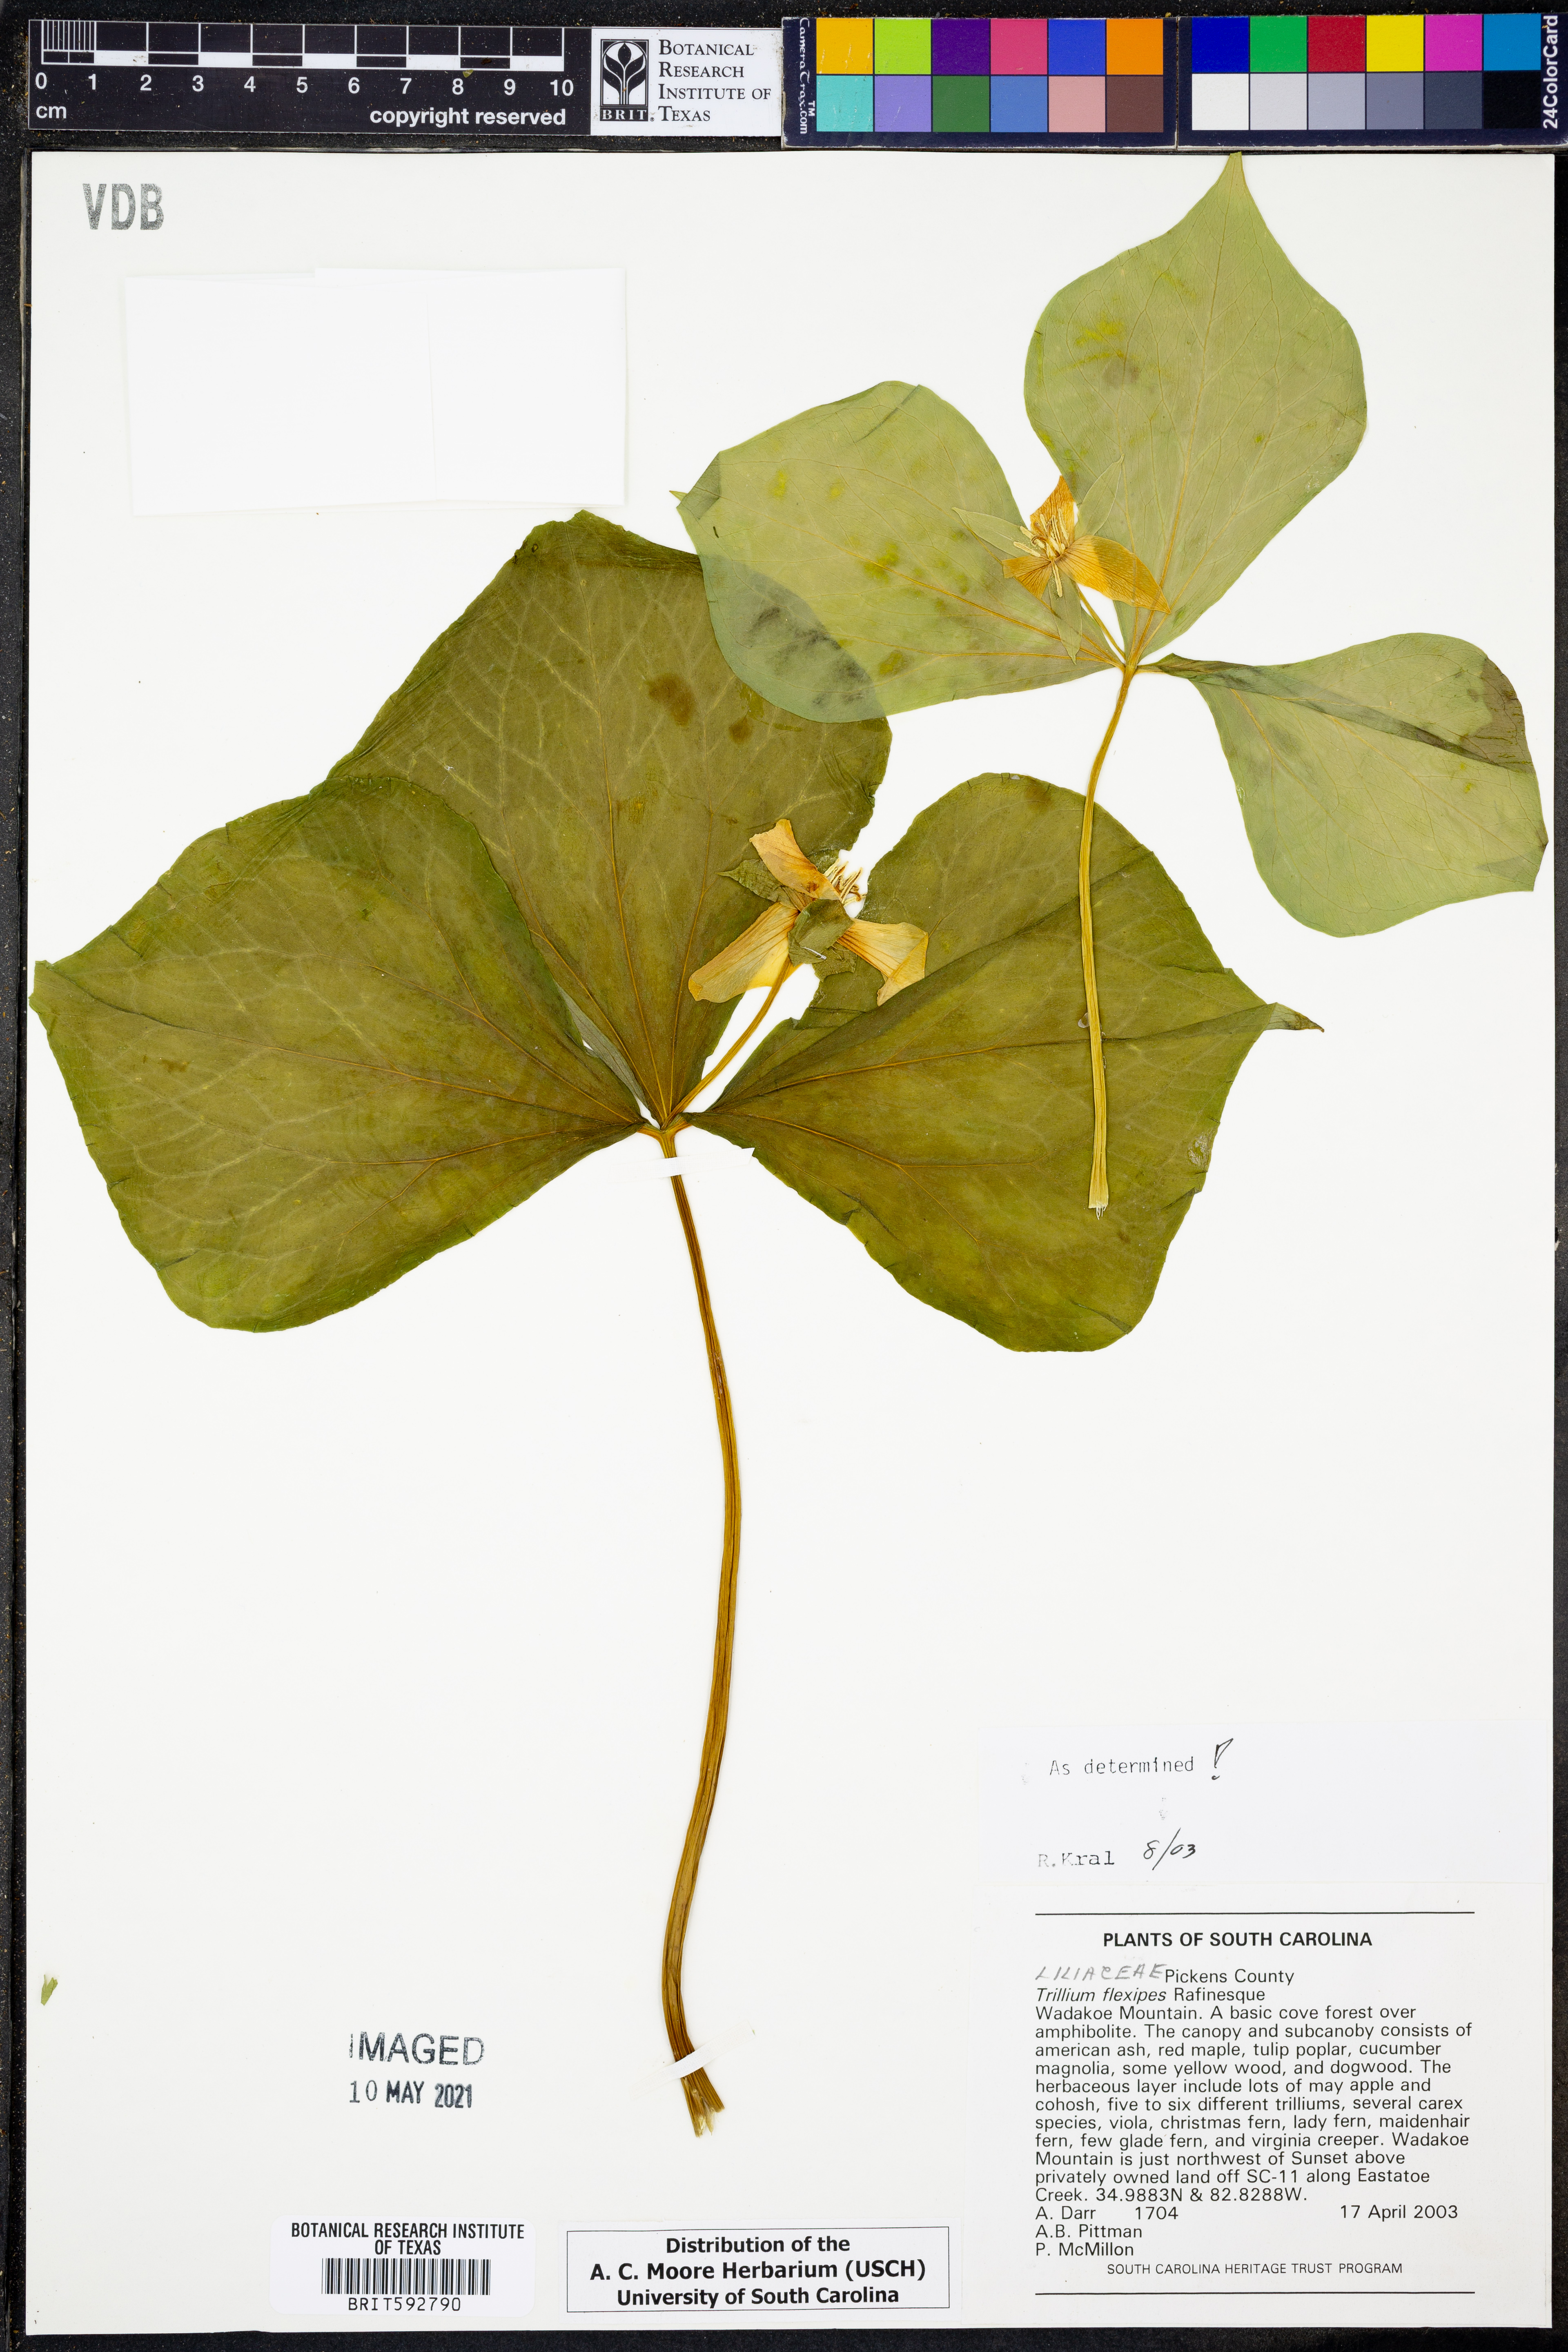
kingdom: Plantae
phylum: Tracheophyta
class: Liliopsida
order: Liliales
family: Melanthiaceae
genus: Trillium
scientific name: Trillium flexipes
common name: Drooping trillium
